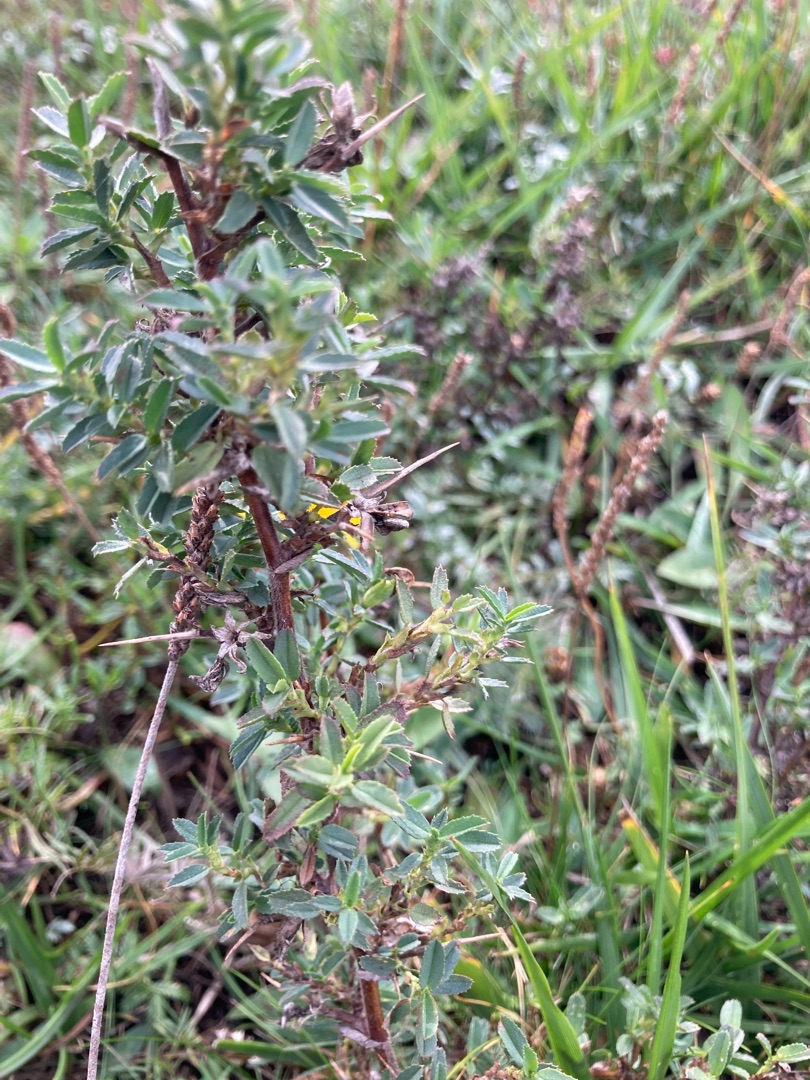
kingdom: Plantae
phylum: Tracheophyta
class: Magnoliopsida
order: Fabales
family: Fabaceae
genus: Ononis
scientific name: Ononis spinosa
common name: Strand-krageklo
